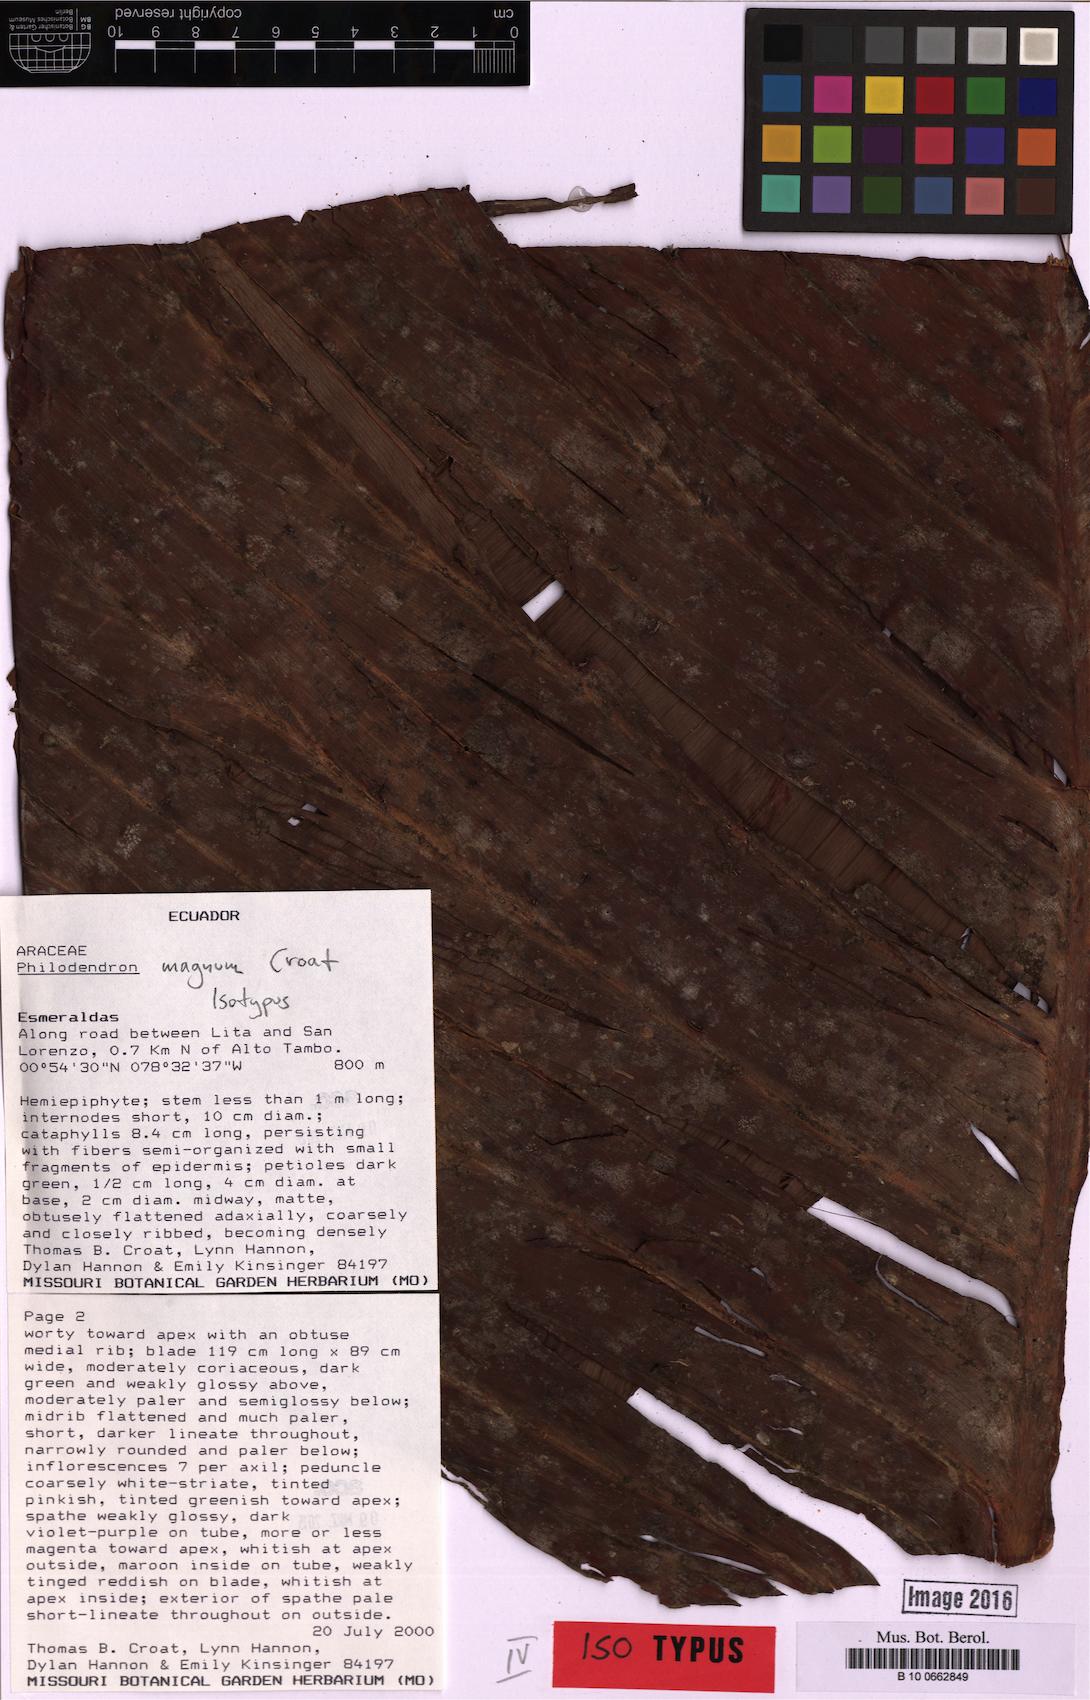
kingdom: Plantae
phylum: Tracheophyta
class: Liliopsida
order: Alismatales
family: Araceae
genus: Philodendron
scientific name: Philodendron magnum
